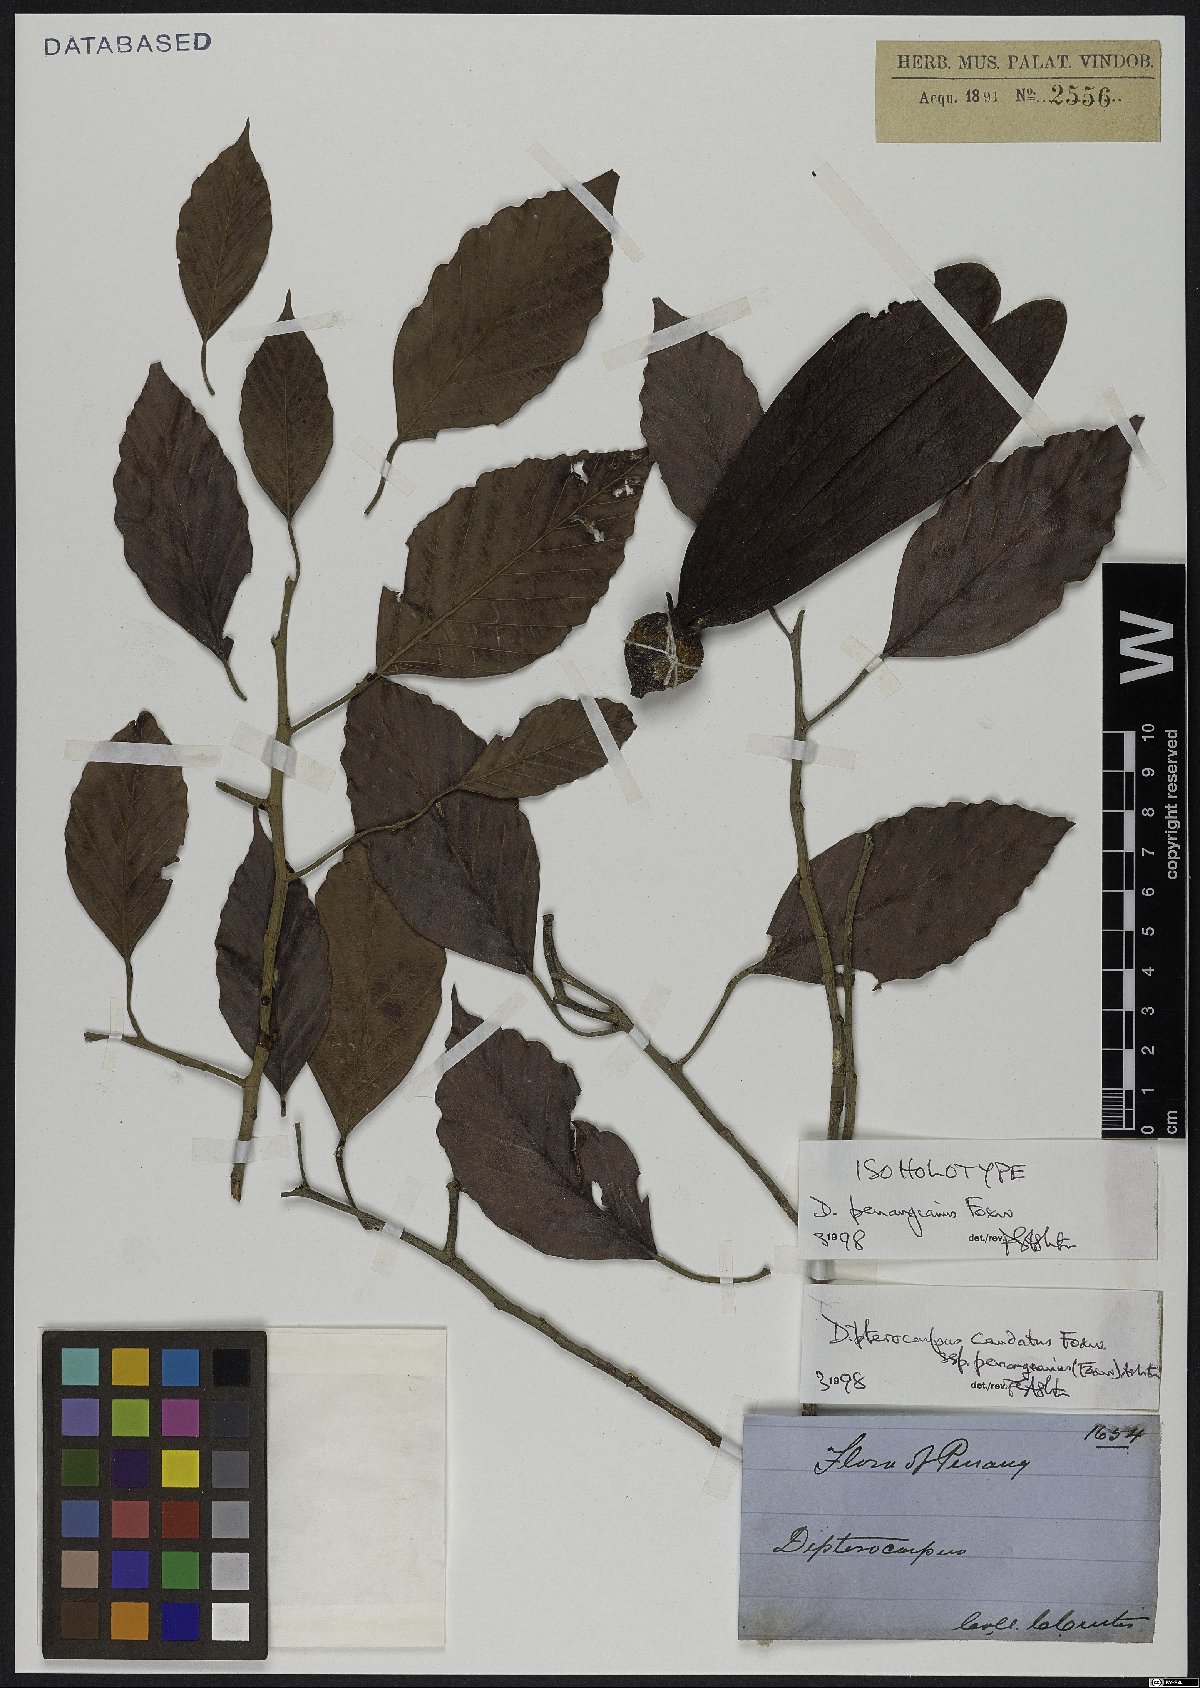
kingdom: Plantae
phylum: Tracheophyta
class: Magnoliopsida
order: Malvales
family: Dipterocarpaceae
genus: Dipterocarpus
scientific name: Dipterocarpus condorensis
